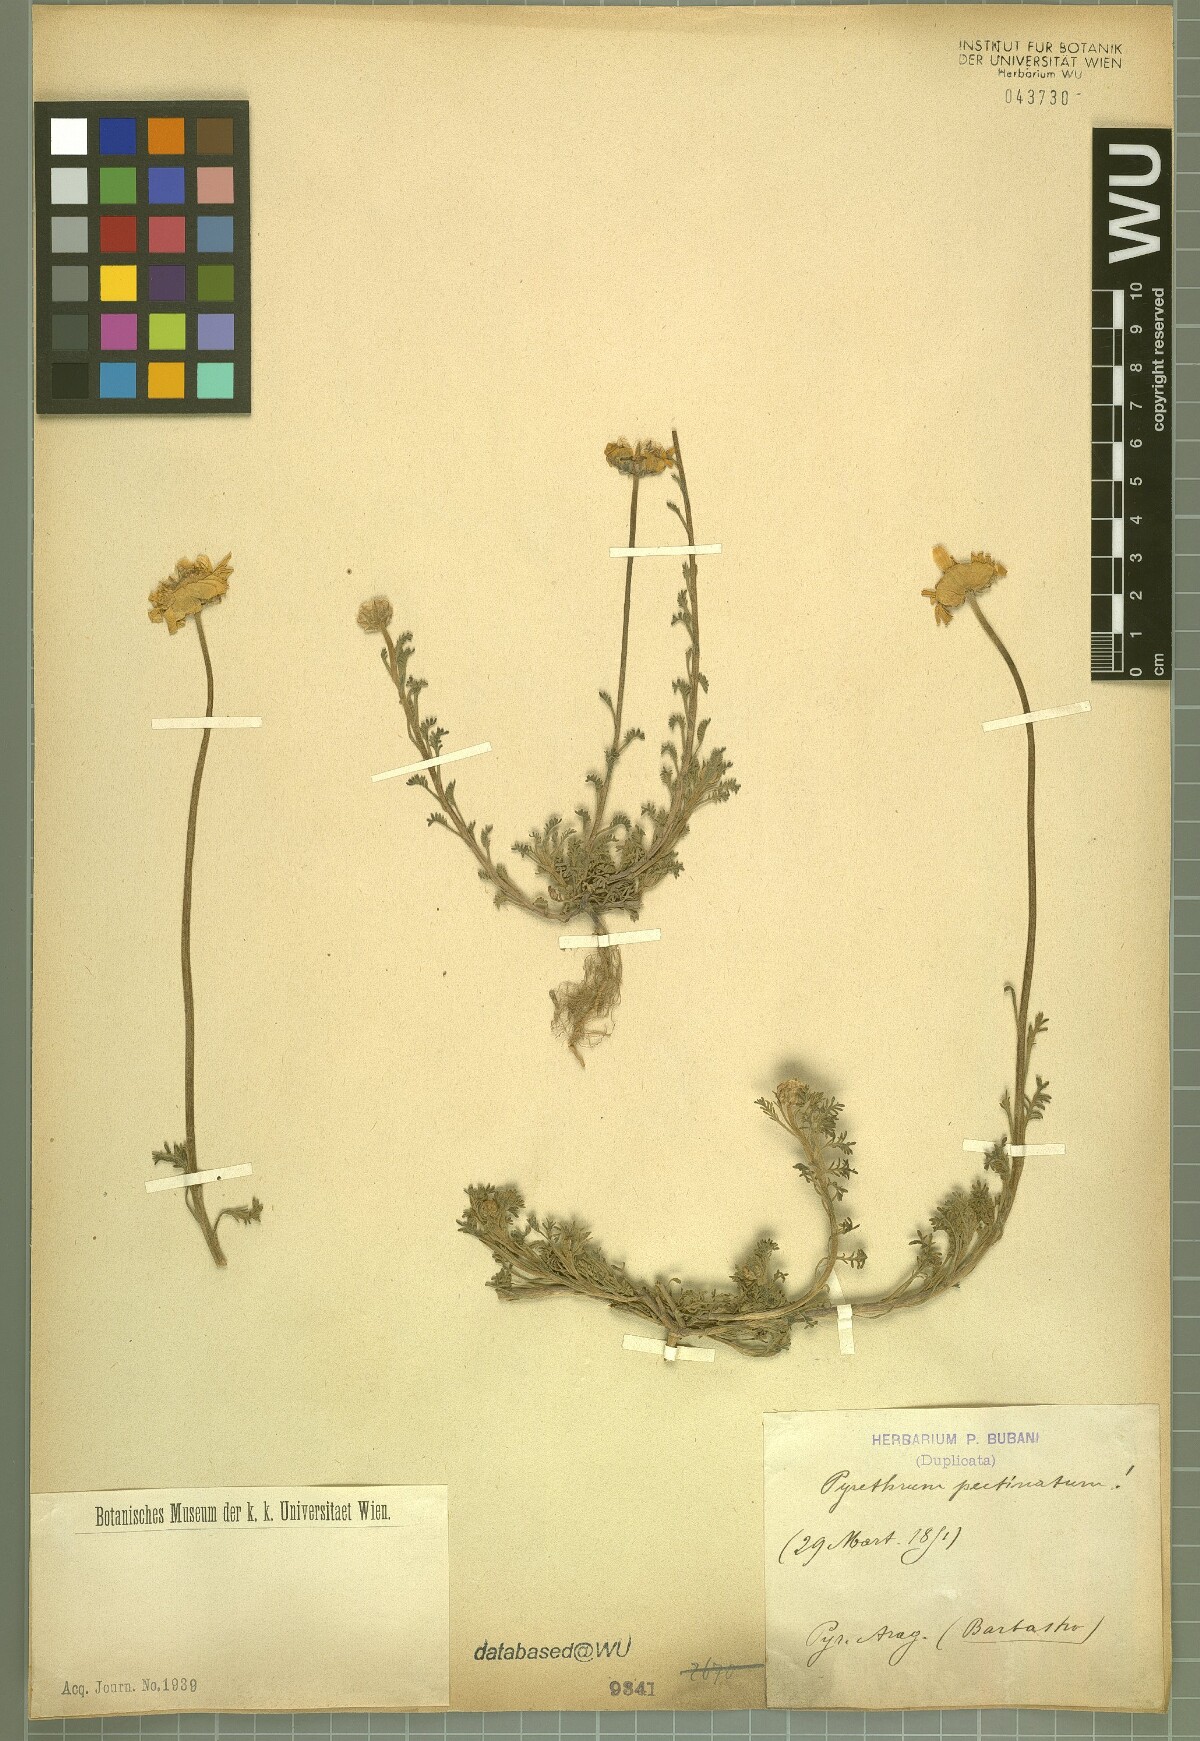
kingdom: Plantae
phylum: Tracheophyta
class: Magnoliopsida
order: Asterales
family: Asteraceae
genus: Pyrethrum
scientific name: Pyrethrum
